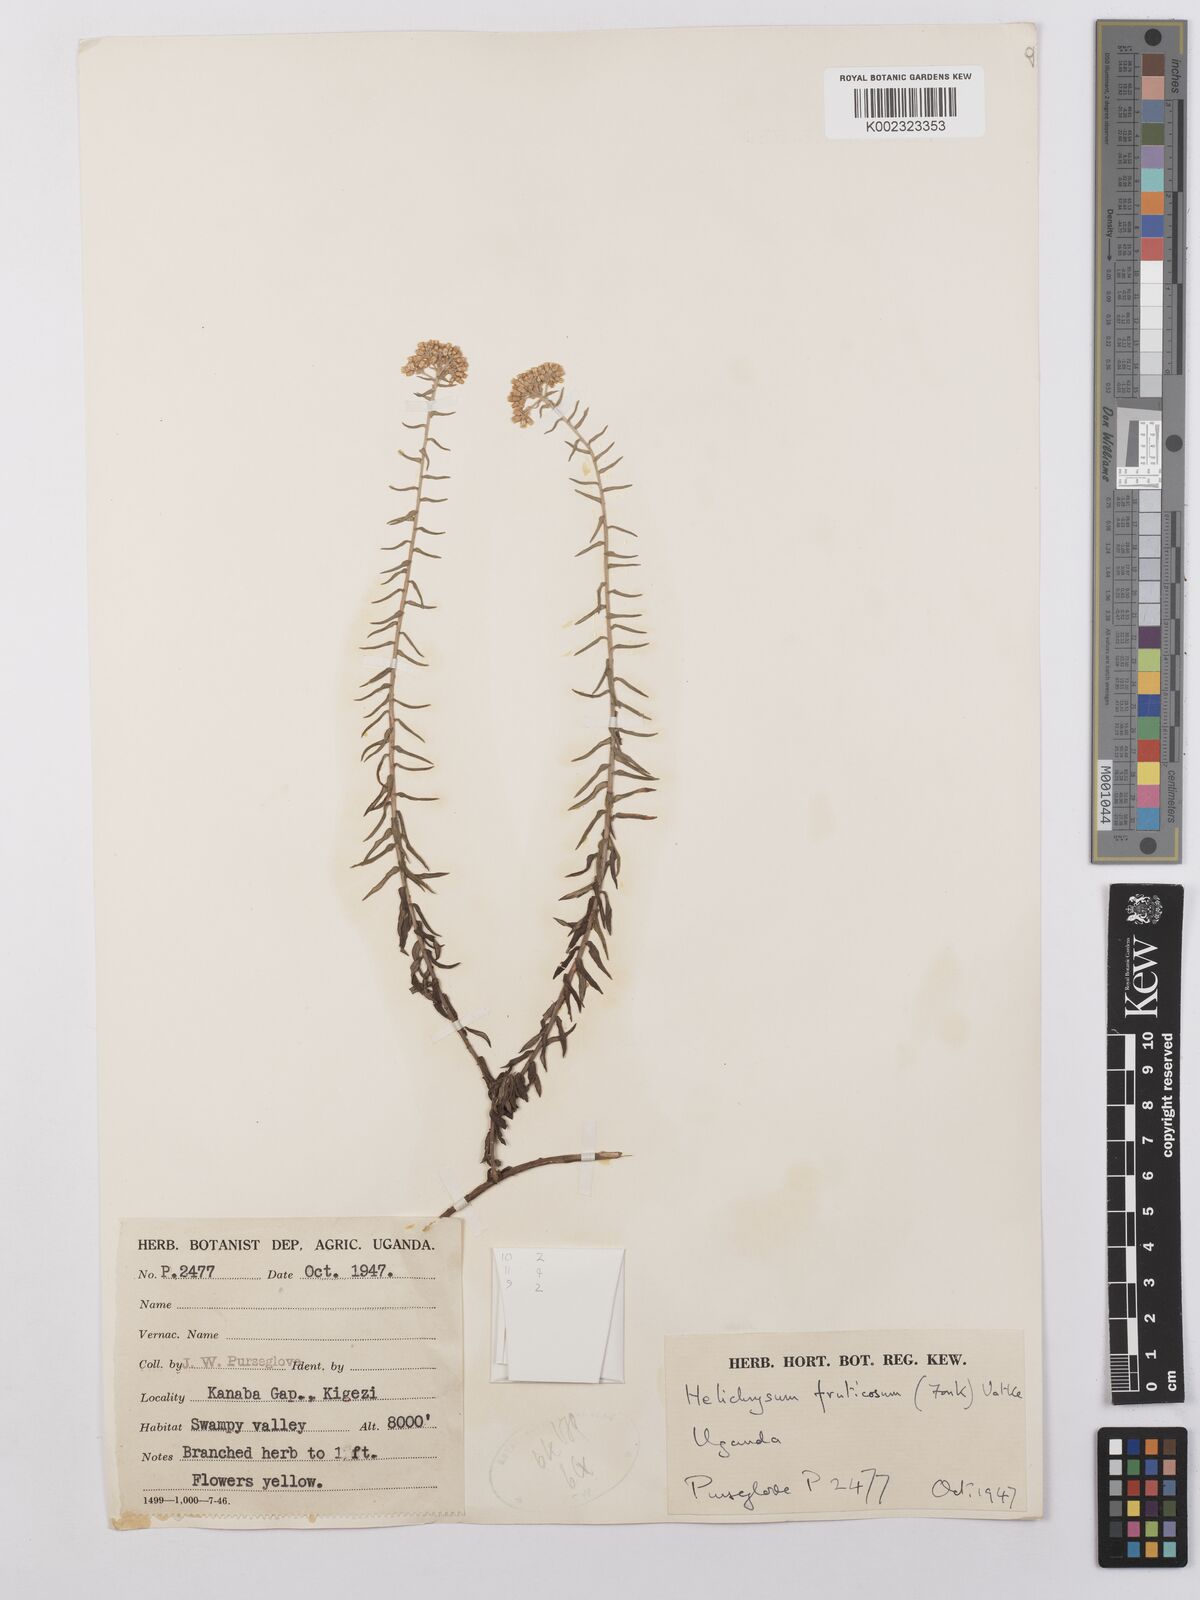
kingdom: Plantae
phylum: Tracheophyta
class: Magnoliopsida
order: Asterales
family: Asteraceae
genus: Helichrysum
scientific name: Helichrysum forskahlii
